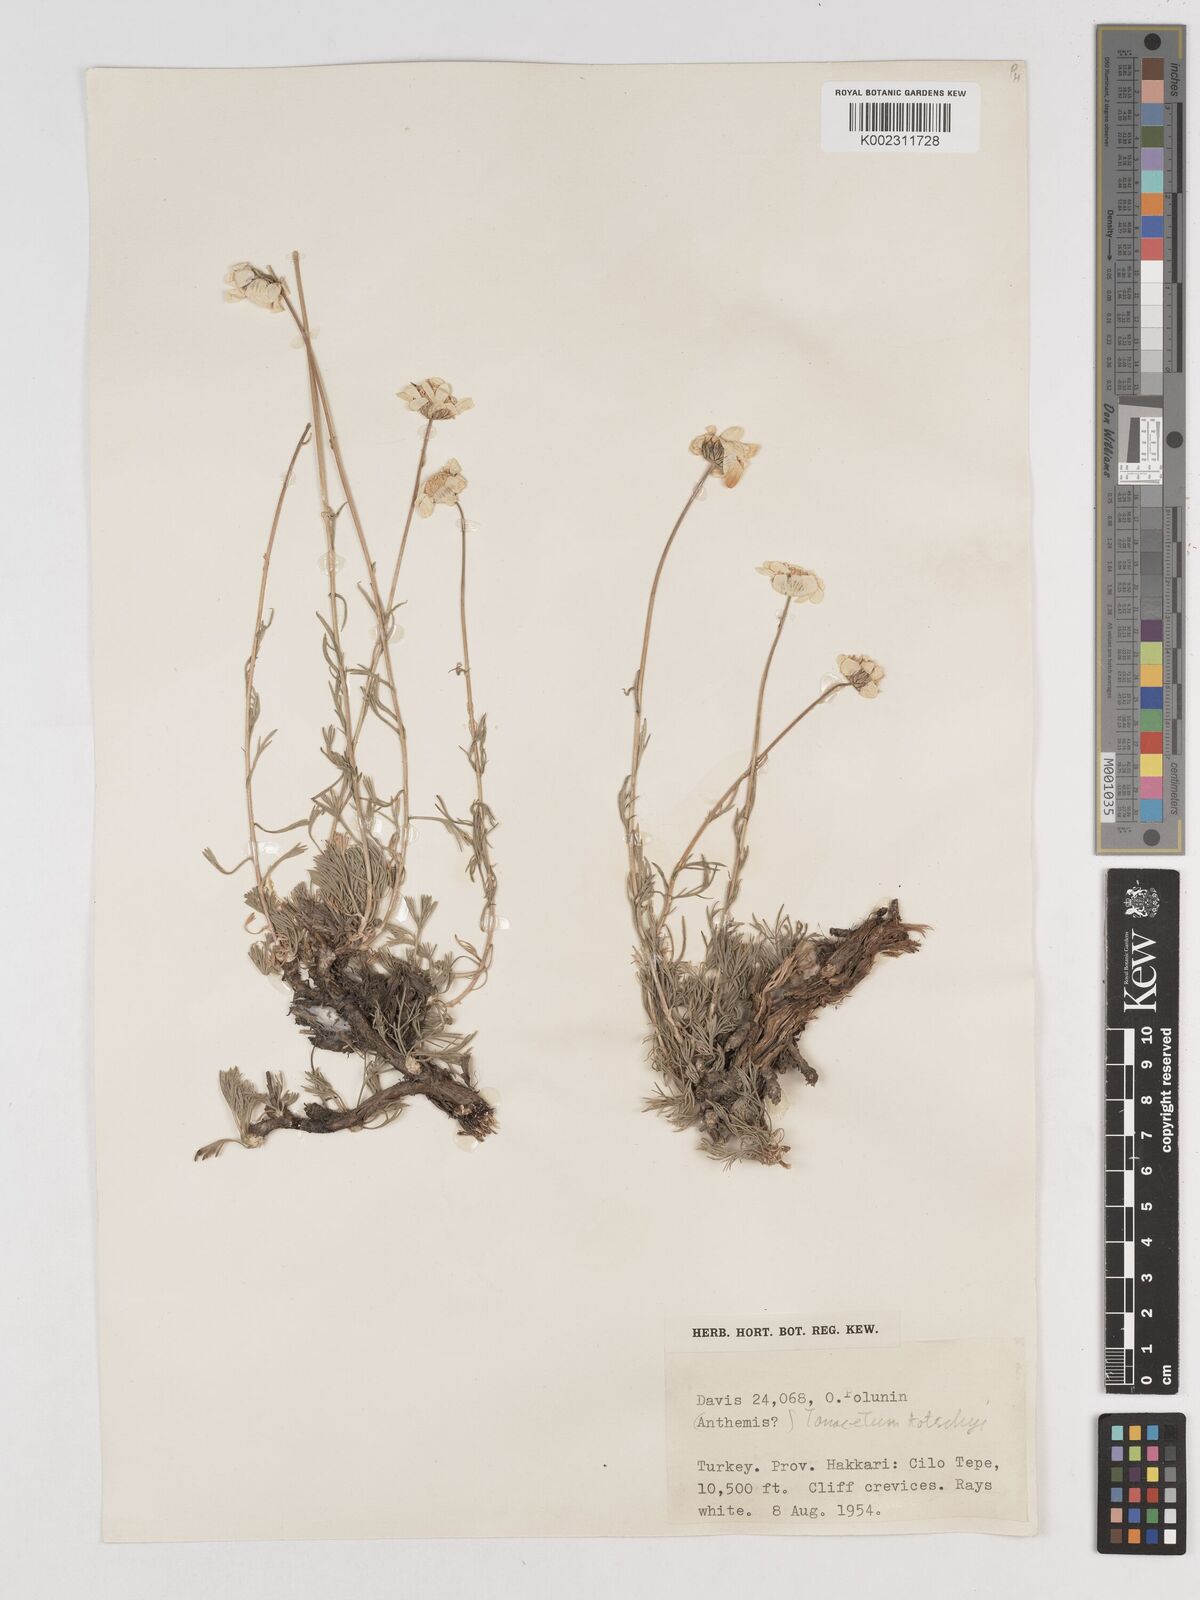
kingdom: Plantae
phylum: Tracheophyta
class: Magnoliopsida
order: Asterales
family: Asteraceae
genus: Tanacetum
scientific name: Tanacetum kotschyi
